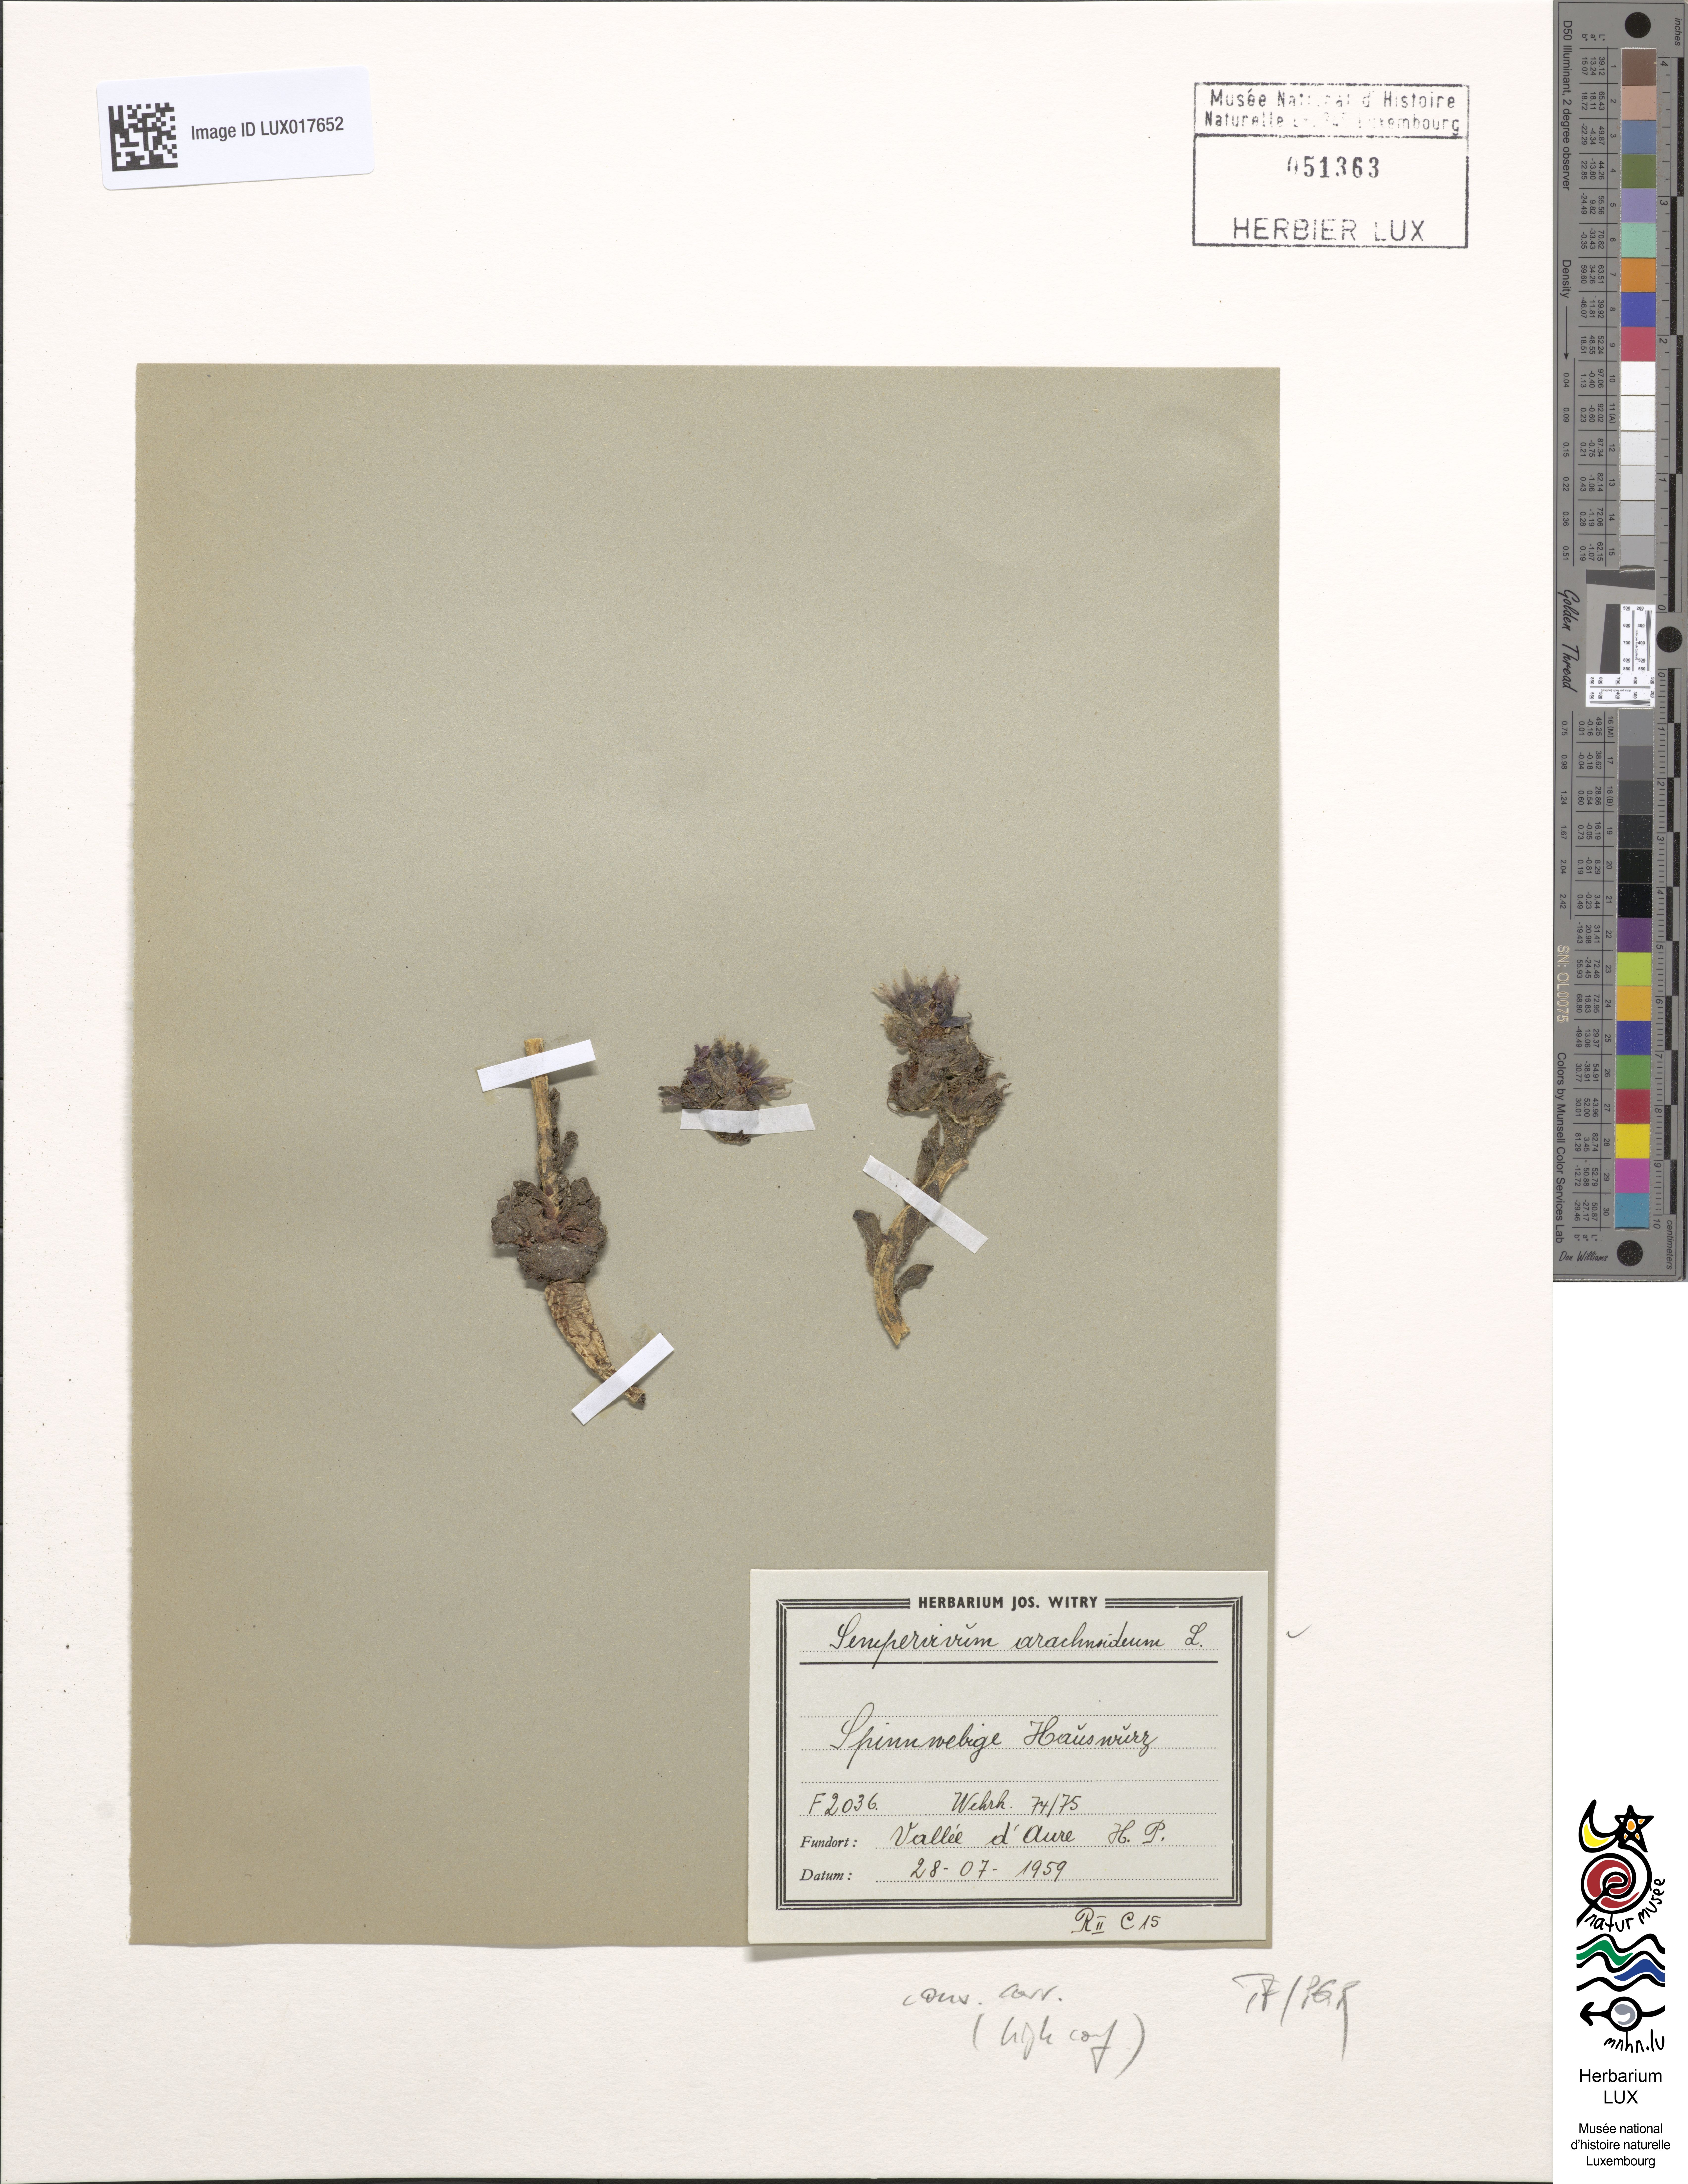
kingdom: Plantae
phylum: Tracheophyta
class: Magnoliopsida
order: Saxifragales
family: Crassulaceae
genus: Sempervivum
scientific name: Sempervivum arachnoideum
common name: Cobweb house-leek
